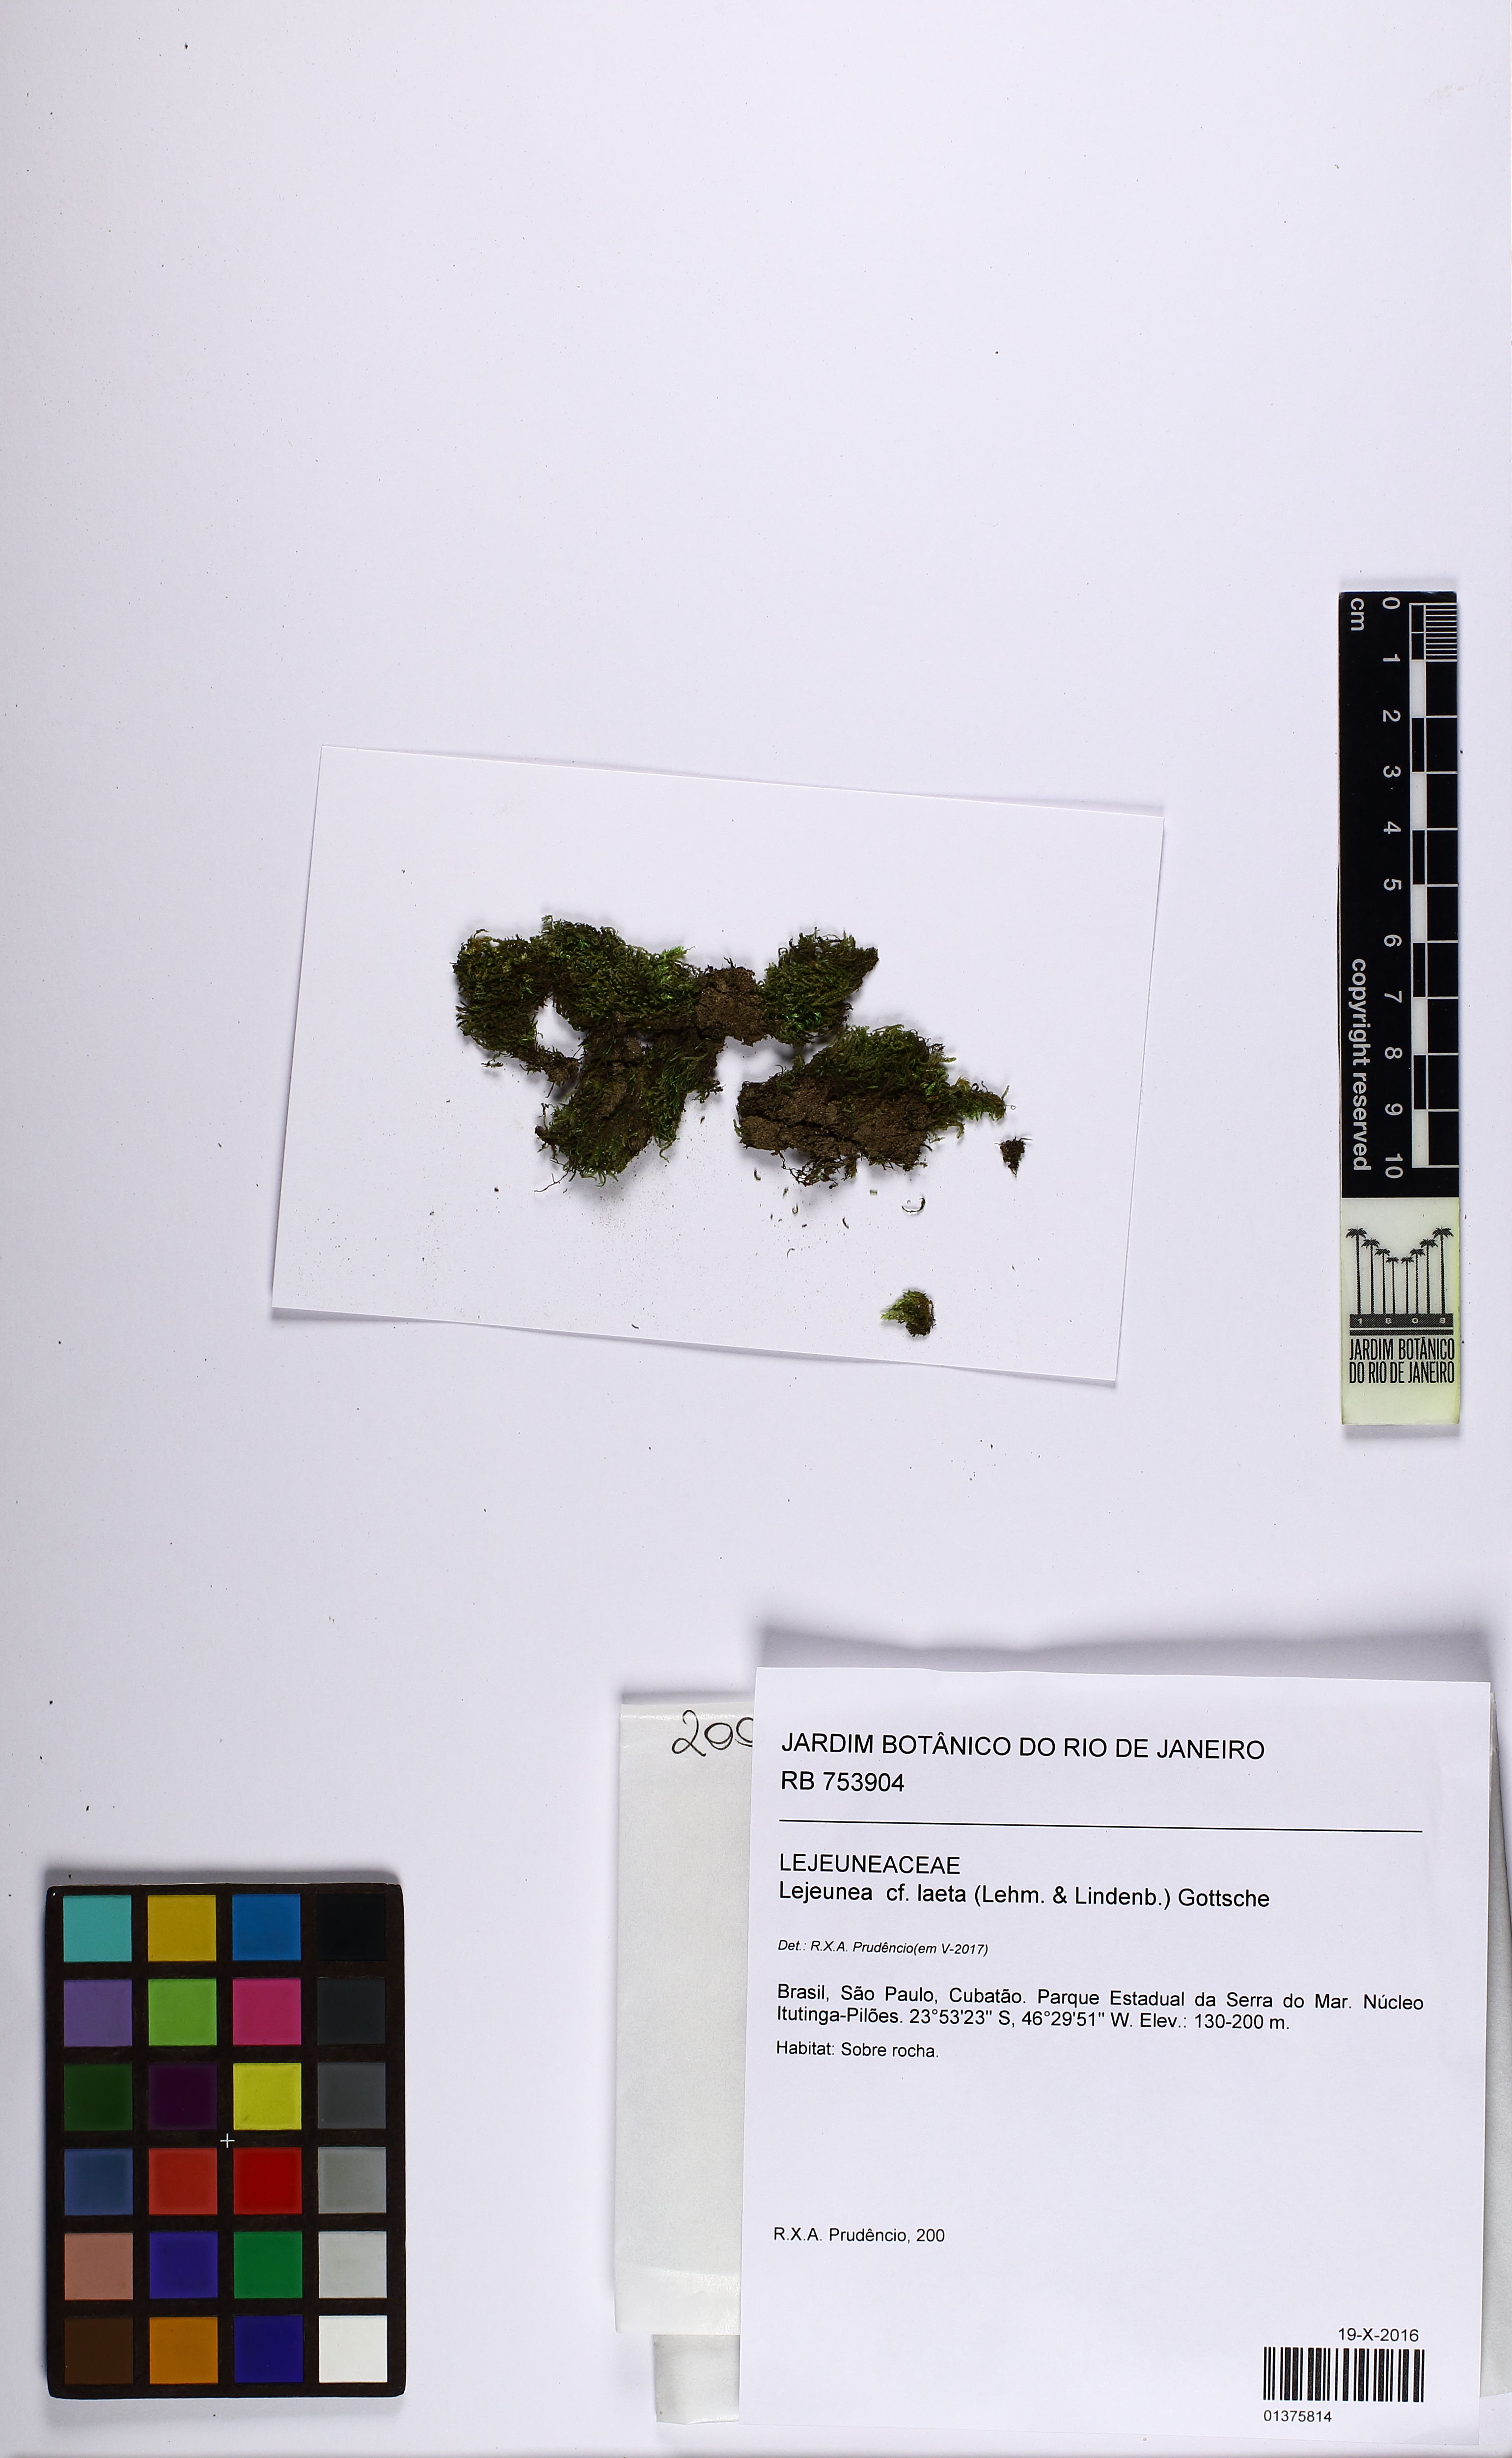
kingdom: Plantae
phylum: Marchantiophyta
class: Jungermanniopsida
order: Porellales
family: Lejeuneaceae
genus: Lejeunea
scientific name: Lejeunea laeta
